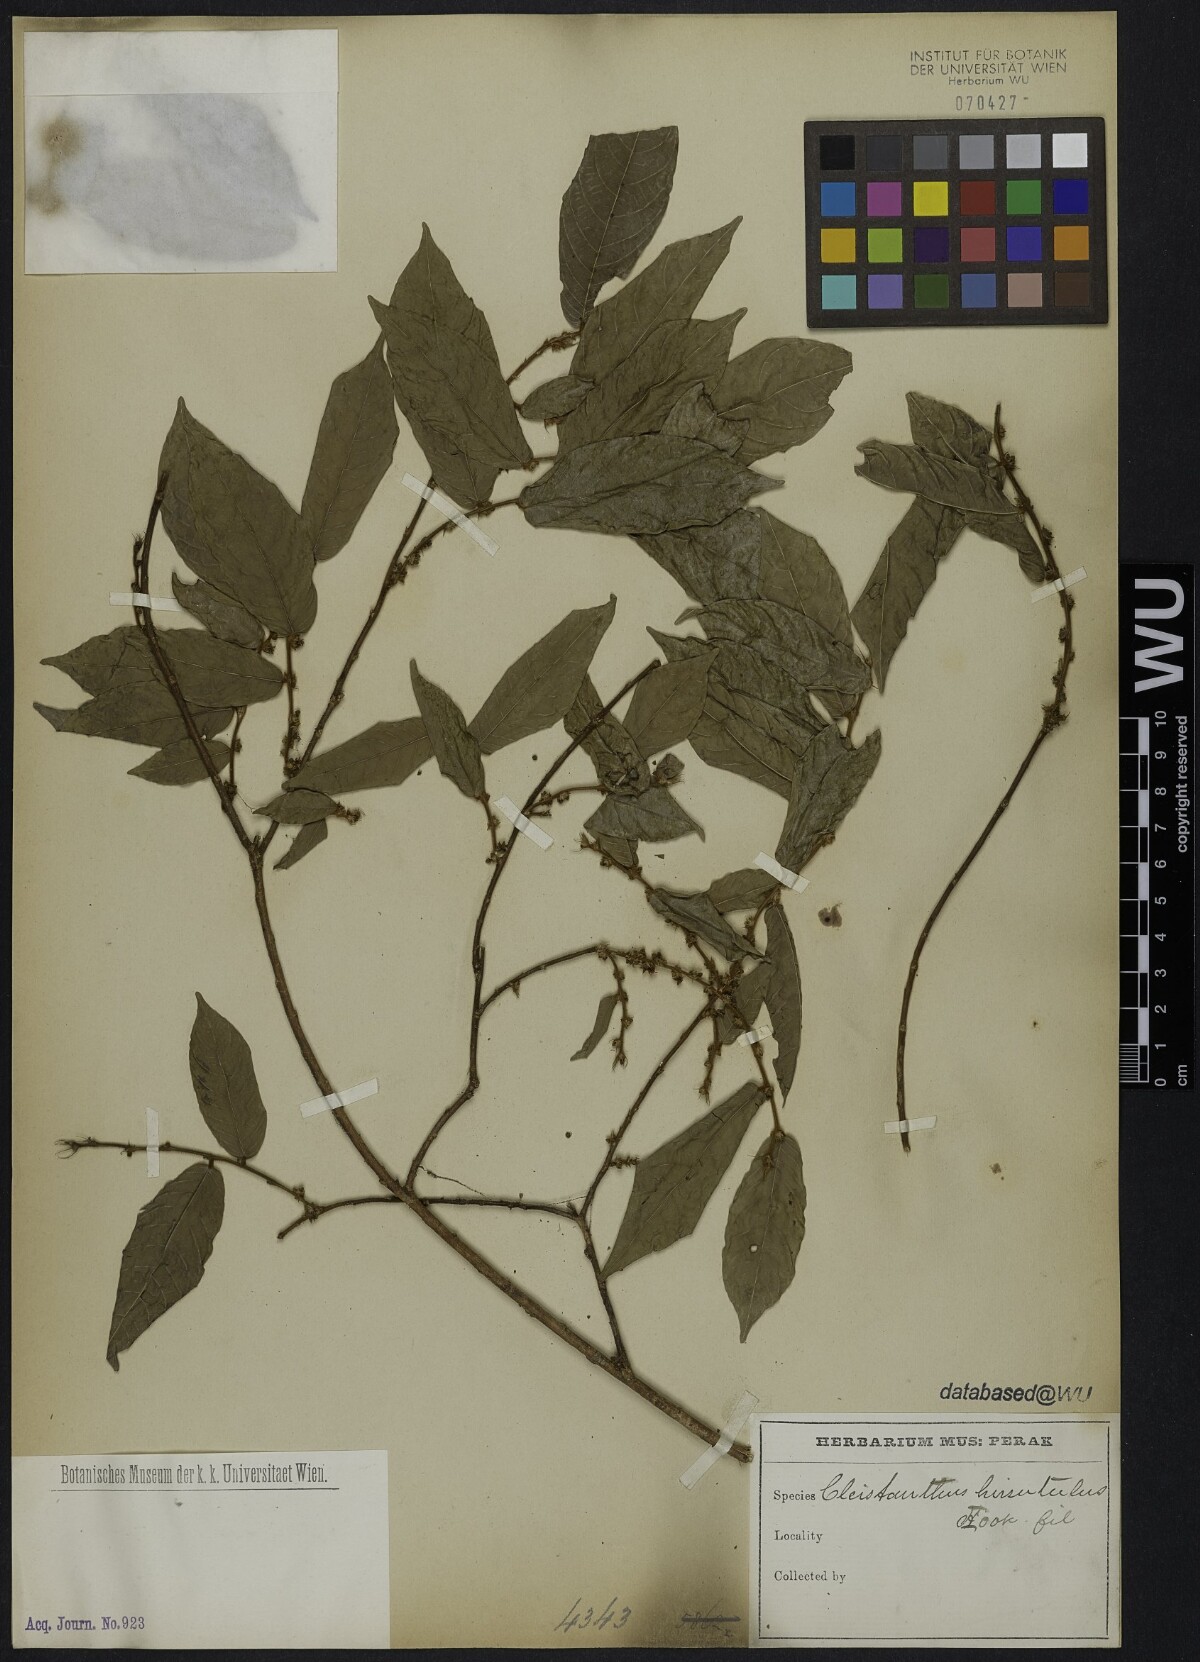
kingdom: Plantae
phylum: Tracheophyta
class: Magnoliopsida
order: Malpighiales
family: Phyllanthaceae
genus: Cleistanthus
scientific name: Cleistanthus hirsutulus
